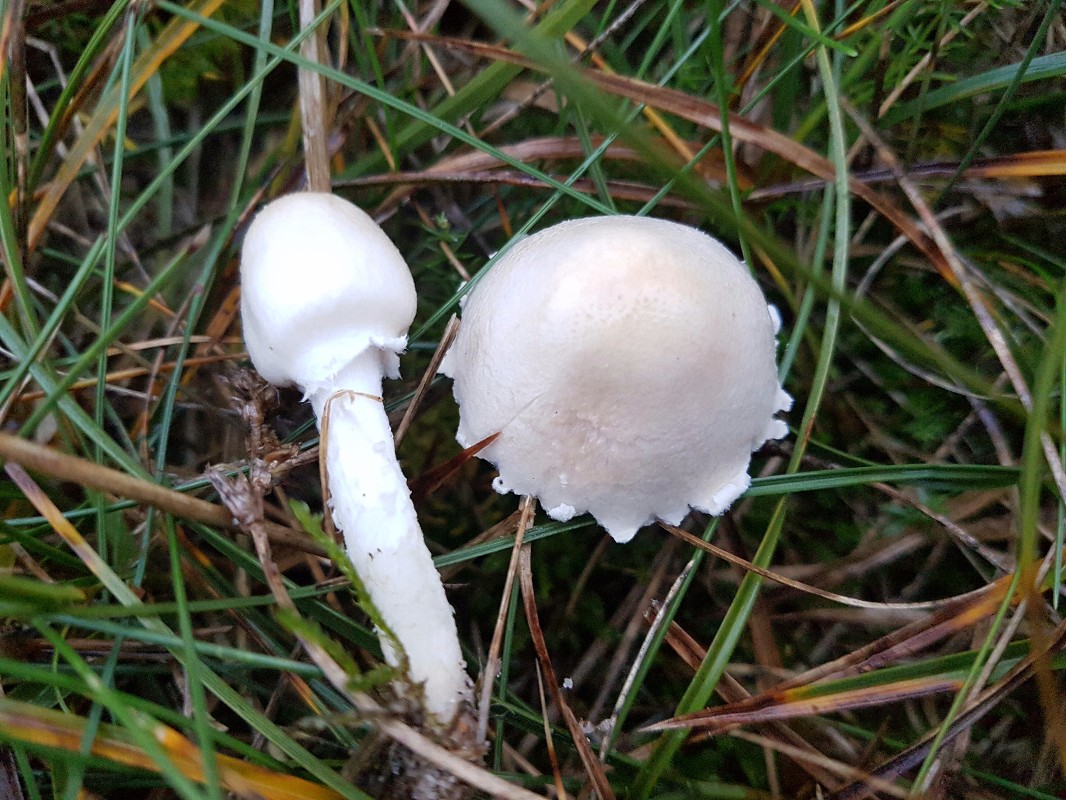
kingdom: Fungi
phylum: Basidiomycota
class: Agaricomycetes
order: Agaricales
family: Agaricaceae
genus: Lepiota
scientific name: Lepiota erminea
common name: hvid parasolhat
